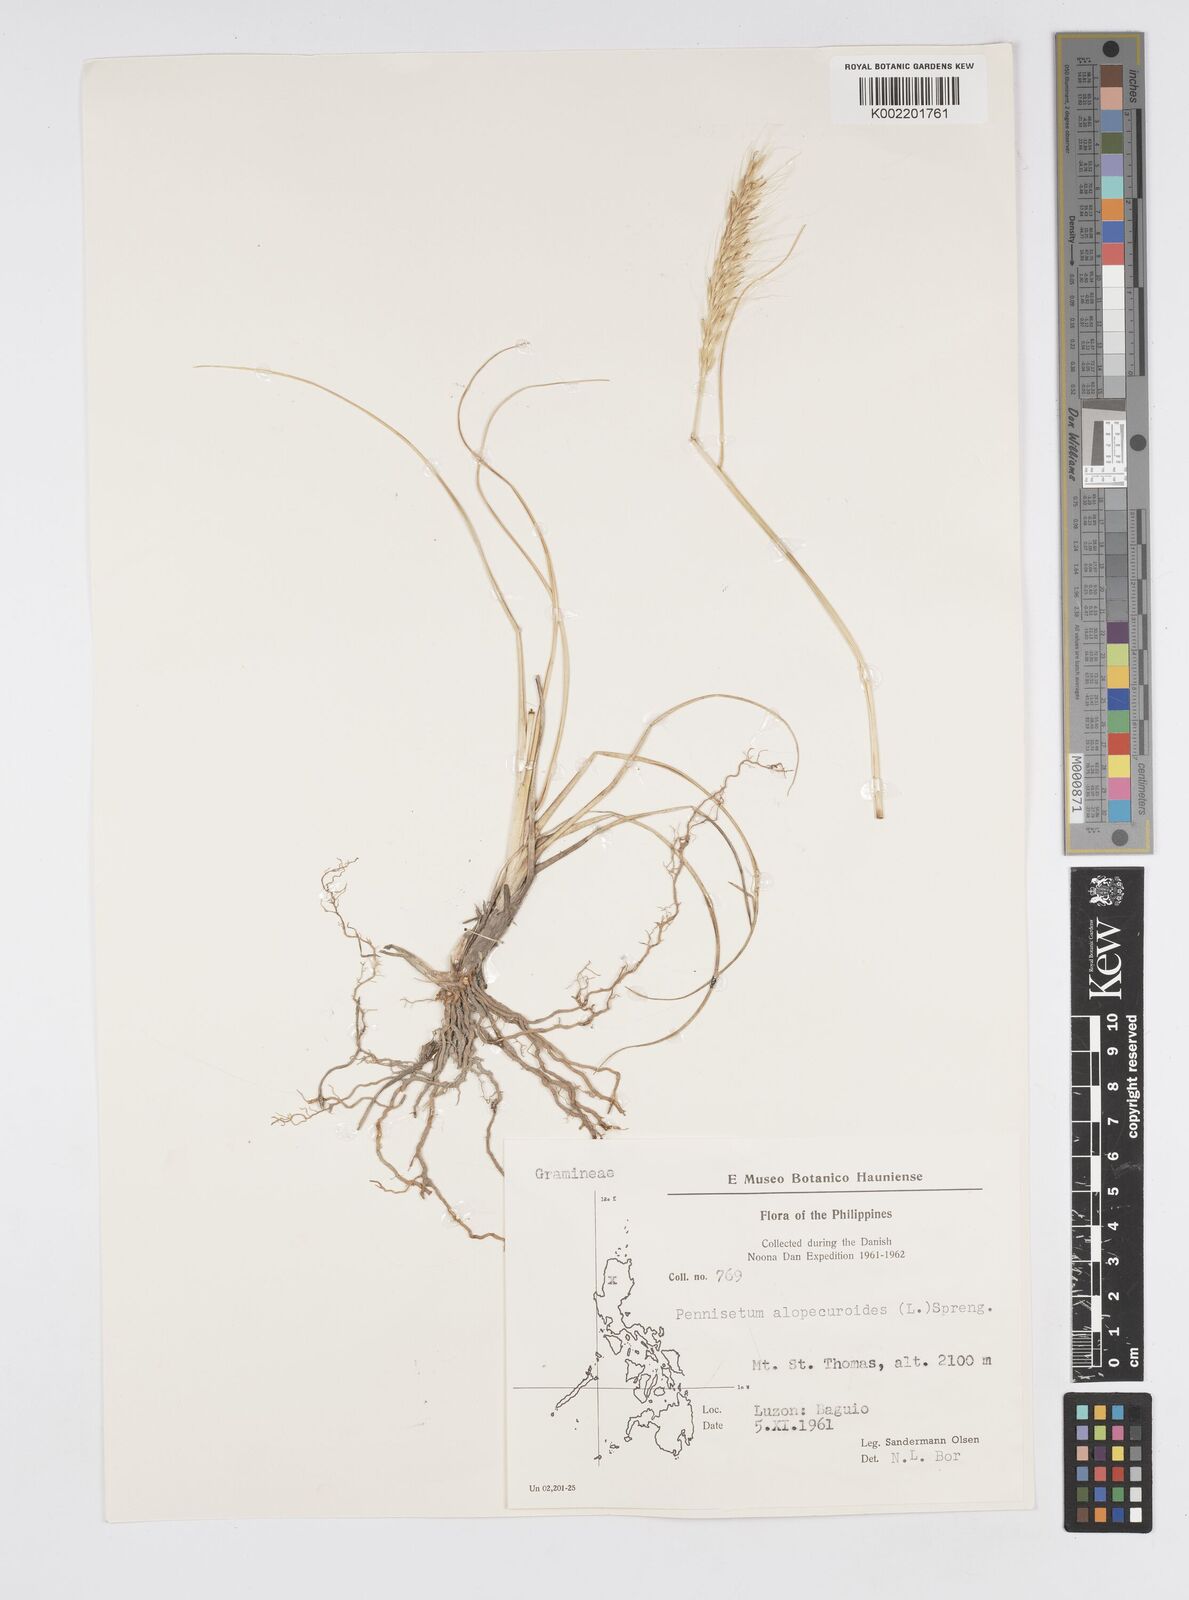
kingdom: Plantae
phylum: Tracheophyta
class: Liliopsida
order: Poales
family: Poaceae
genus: Cenchrus
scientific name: Cenchrus setosus
